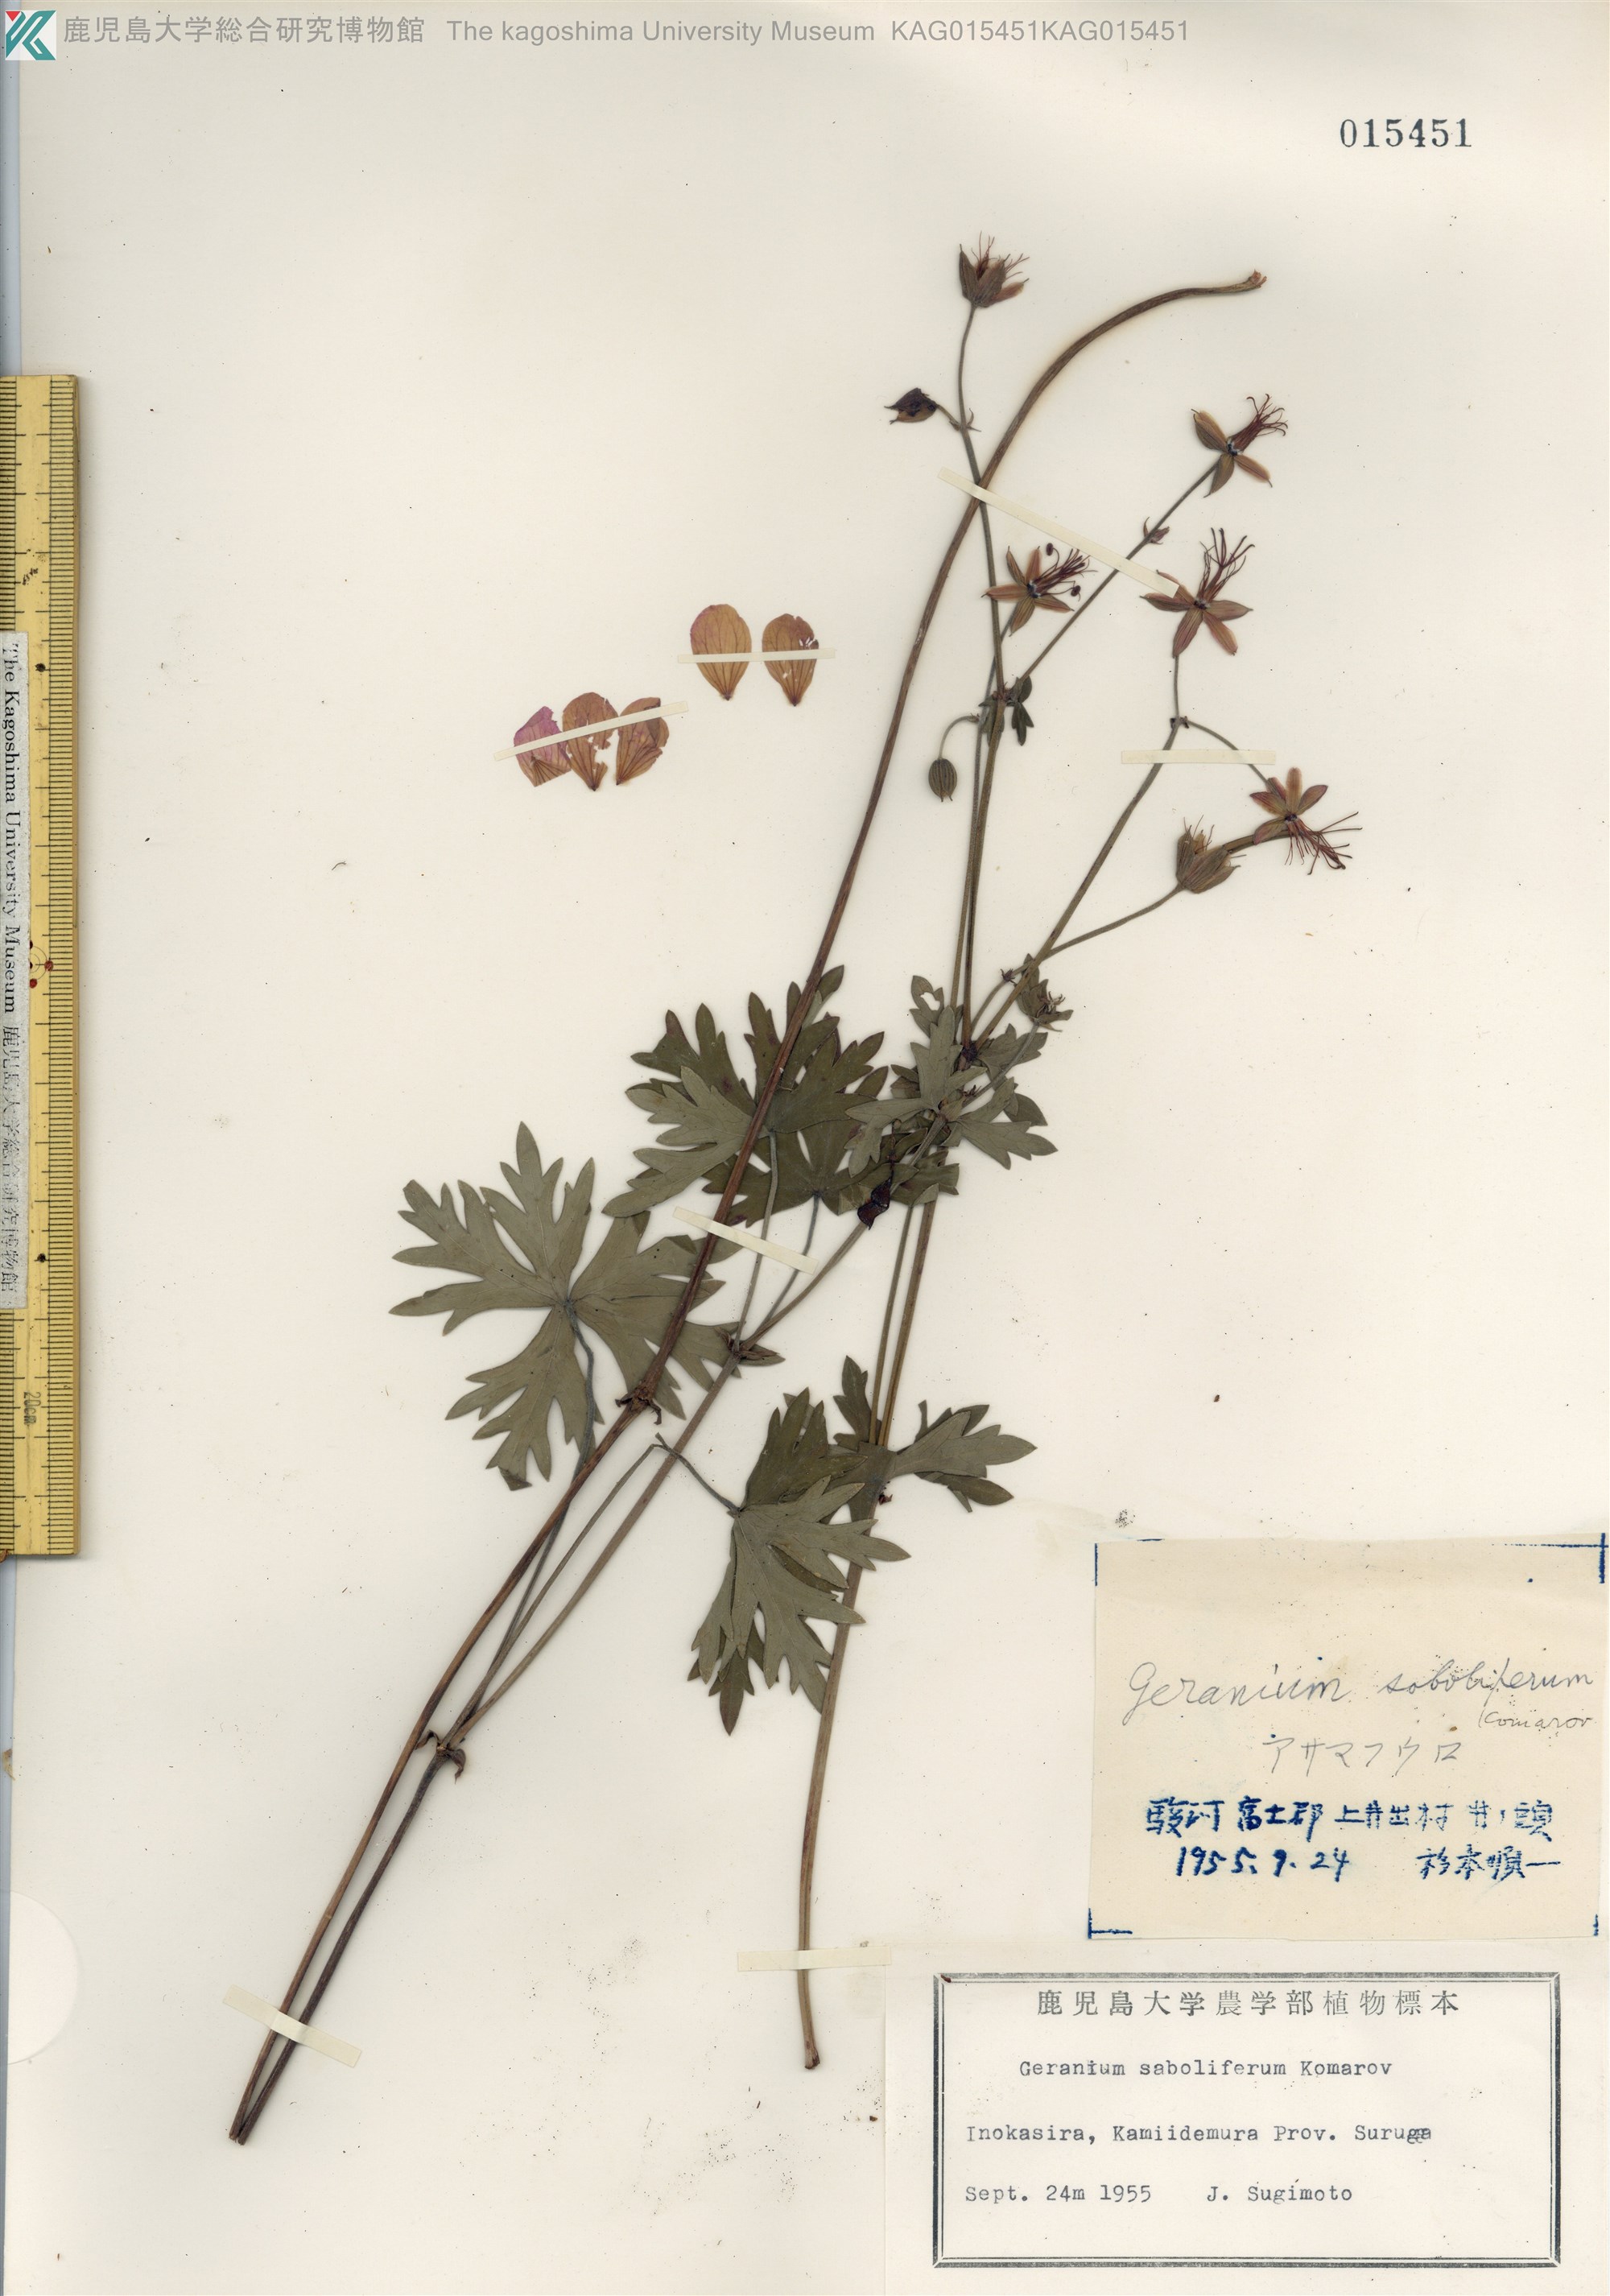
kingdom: Plantae
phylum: Tracheophyta
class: Magnoliopsida
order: Geraniales
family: Geraniaceae
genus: Geranium
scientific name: Geranium soboliferum
